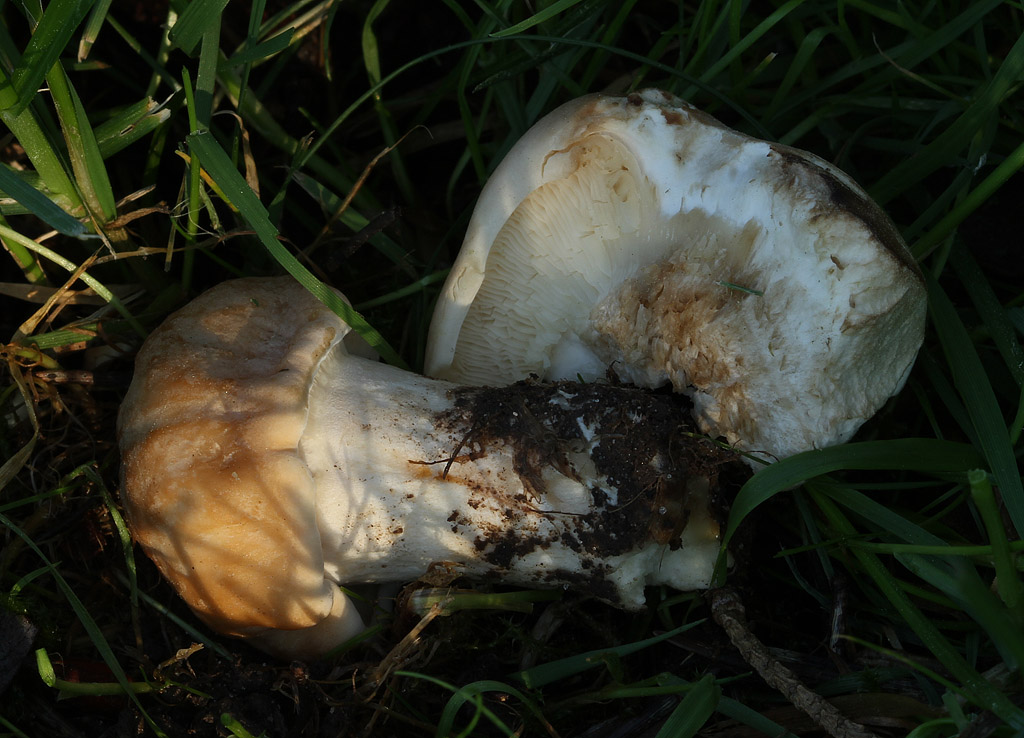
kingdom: Fungi
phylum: Basidiomycota
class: Agaricomycetes
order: Agaricales
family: Lyophyllaceae
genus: Calocybe
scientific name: Calocybe gambosa
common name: vårmusseron
